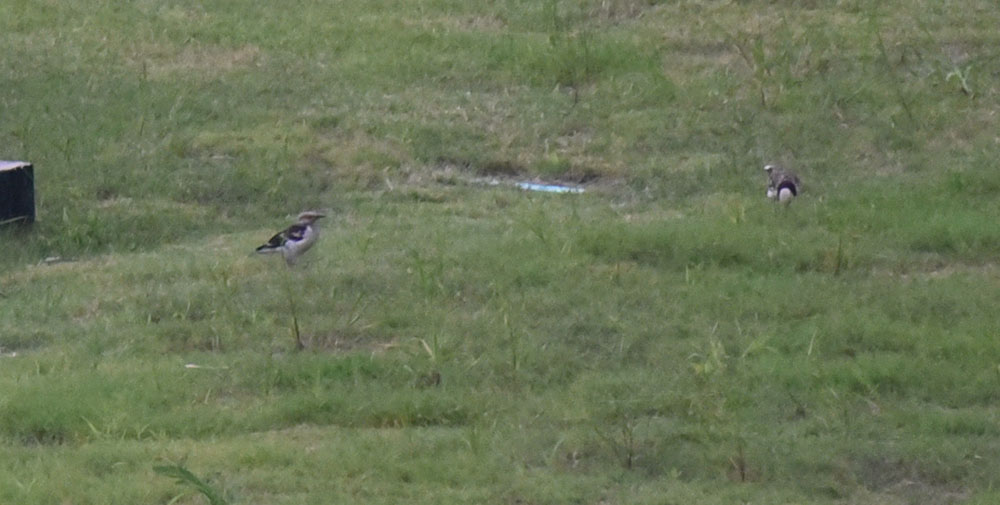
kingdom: Animalia
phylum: Chordata
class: Aves
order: Passeriformes
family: Sturnidae
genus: Gracupica
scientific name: Gracupica nigricollis
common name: Black-collared starling
